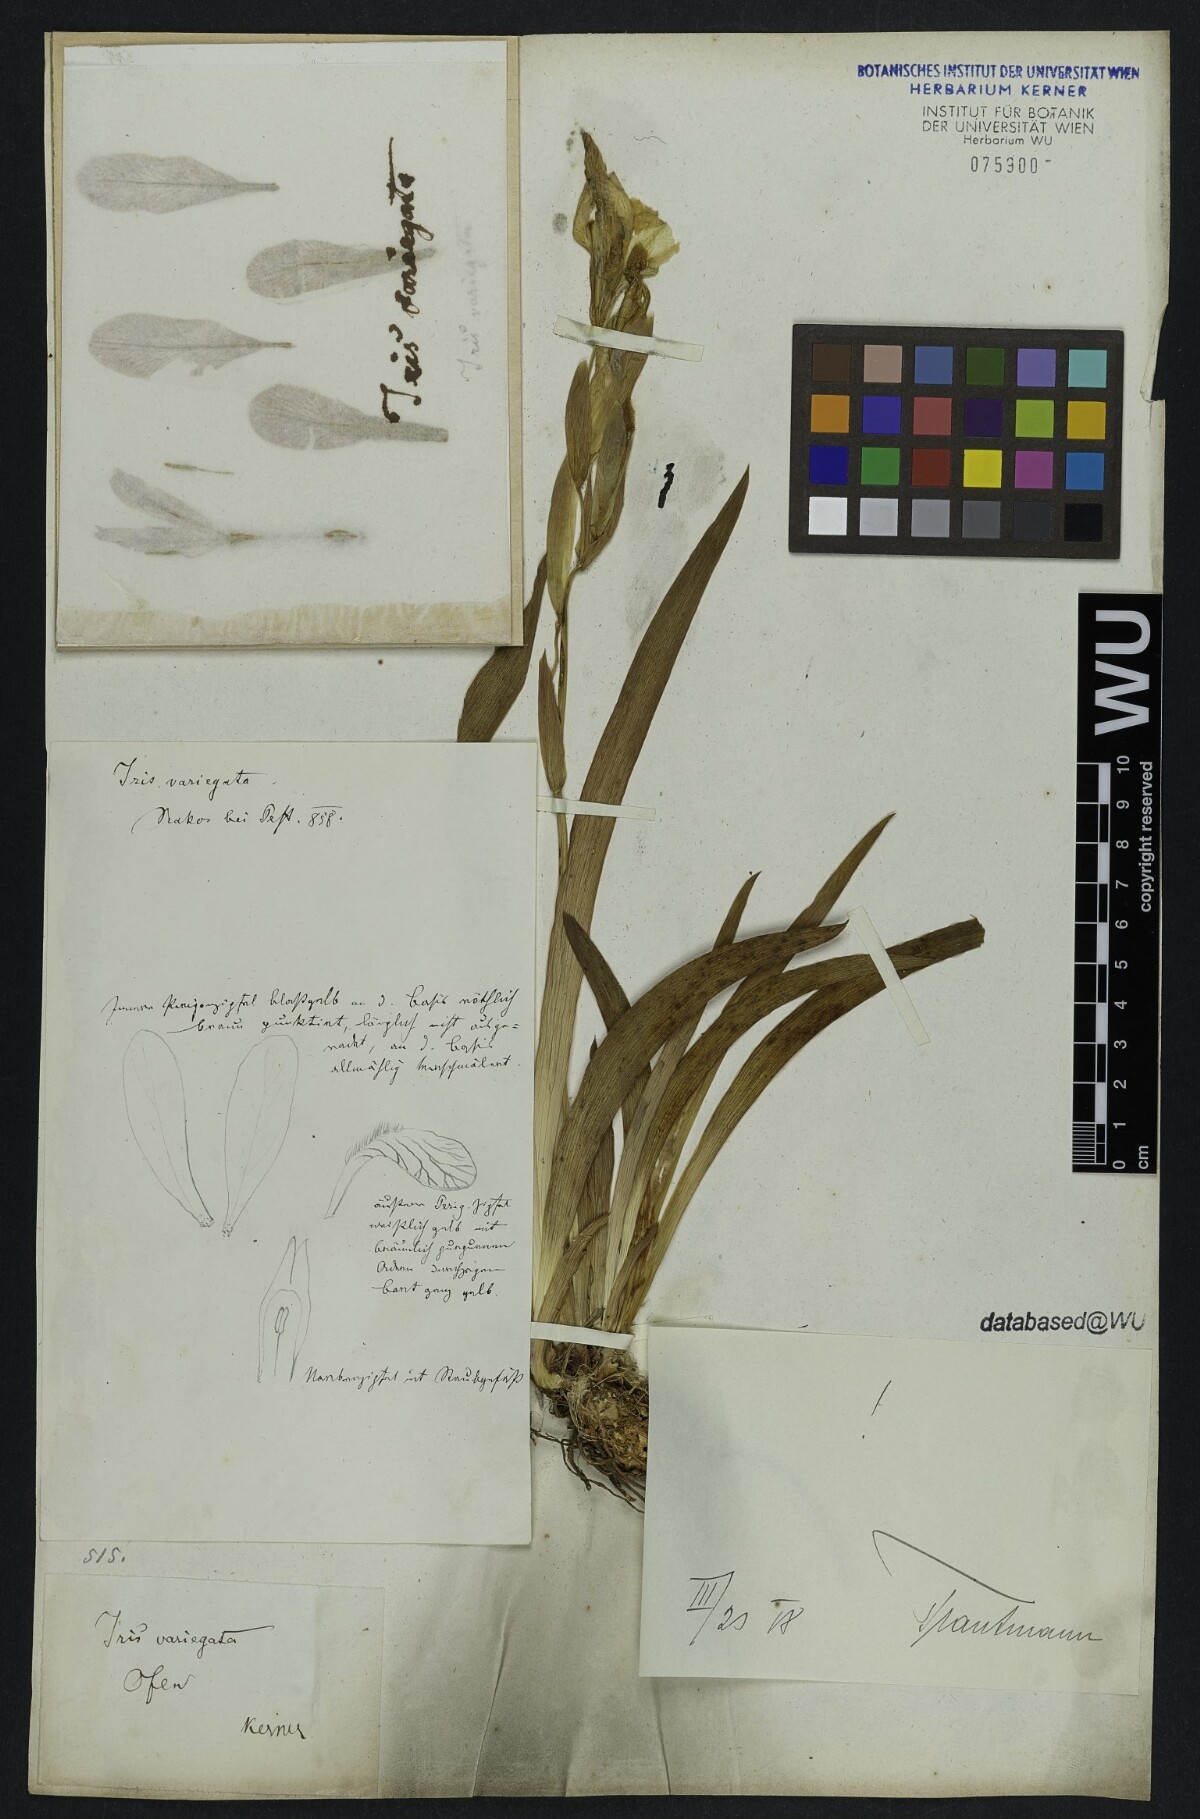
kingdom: Plantae
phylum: Tracheophyta
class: Liliopsida
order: Asparagales
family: Iridaceae
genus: Iris
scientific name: Iris variegata
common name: Hungarian iris
